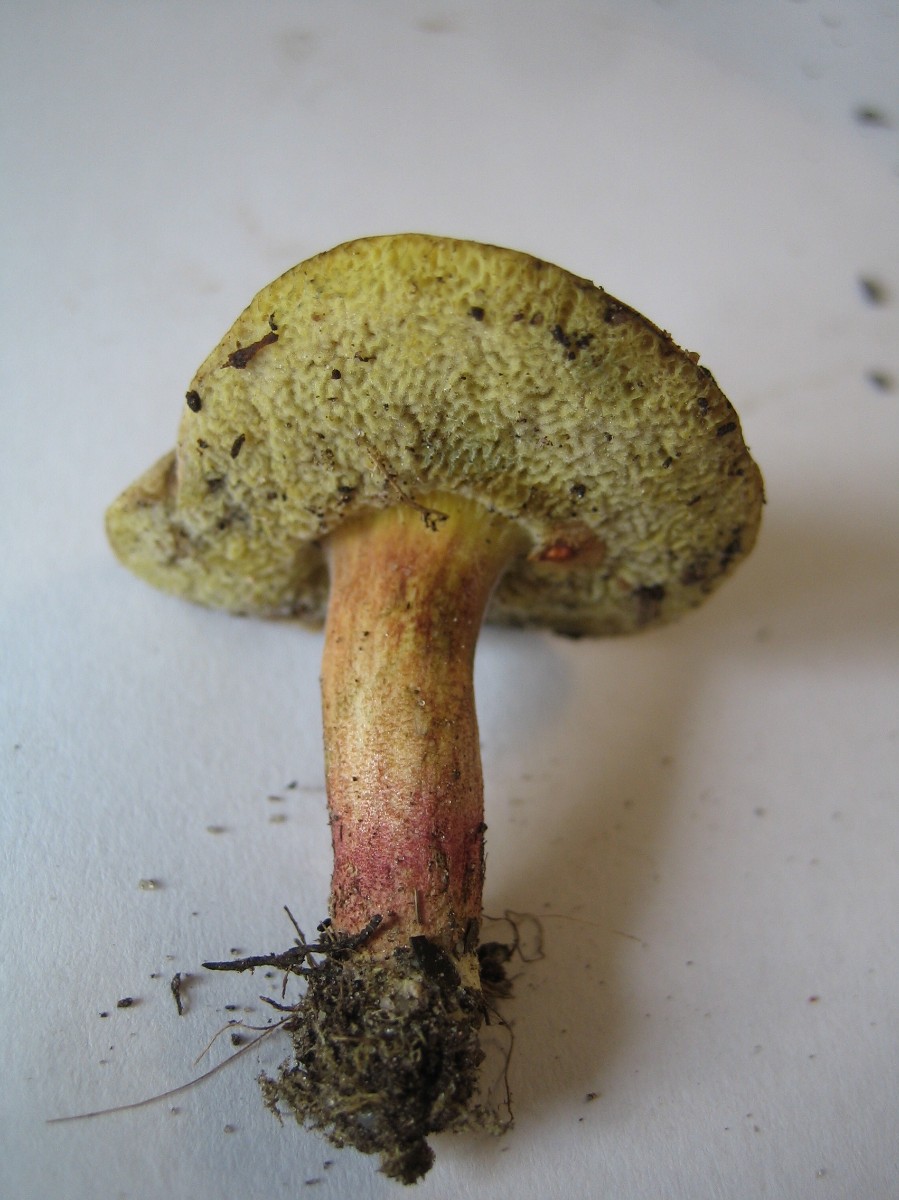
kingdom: Fungi
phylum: Basidiomycota
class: Agaricomycetes
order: Boletales
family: Boletaceae
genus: Xerocomellus
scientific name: Xerocomellus chrysenteron
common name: rødsprukken rørhat
